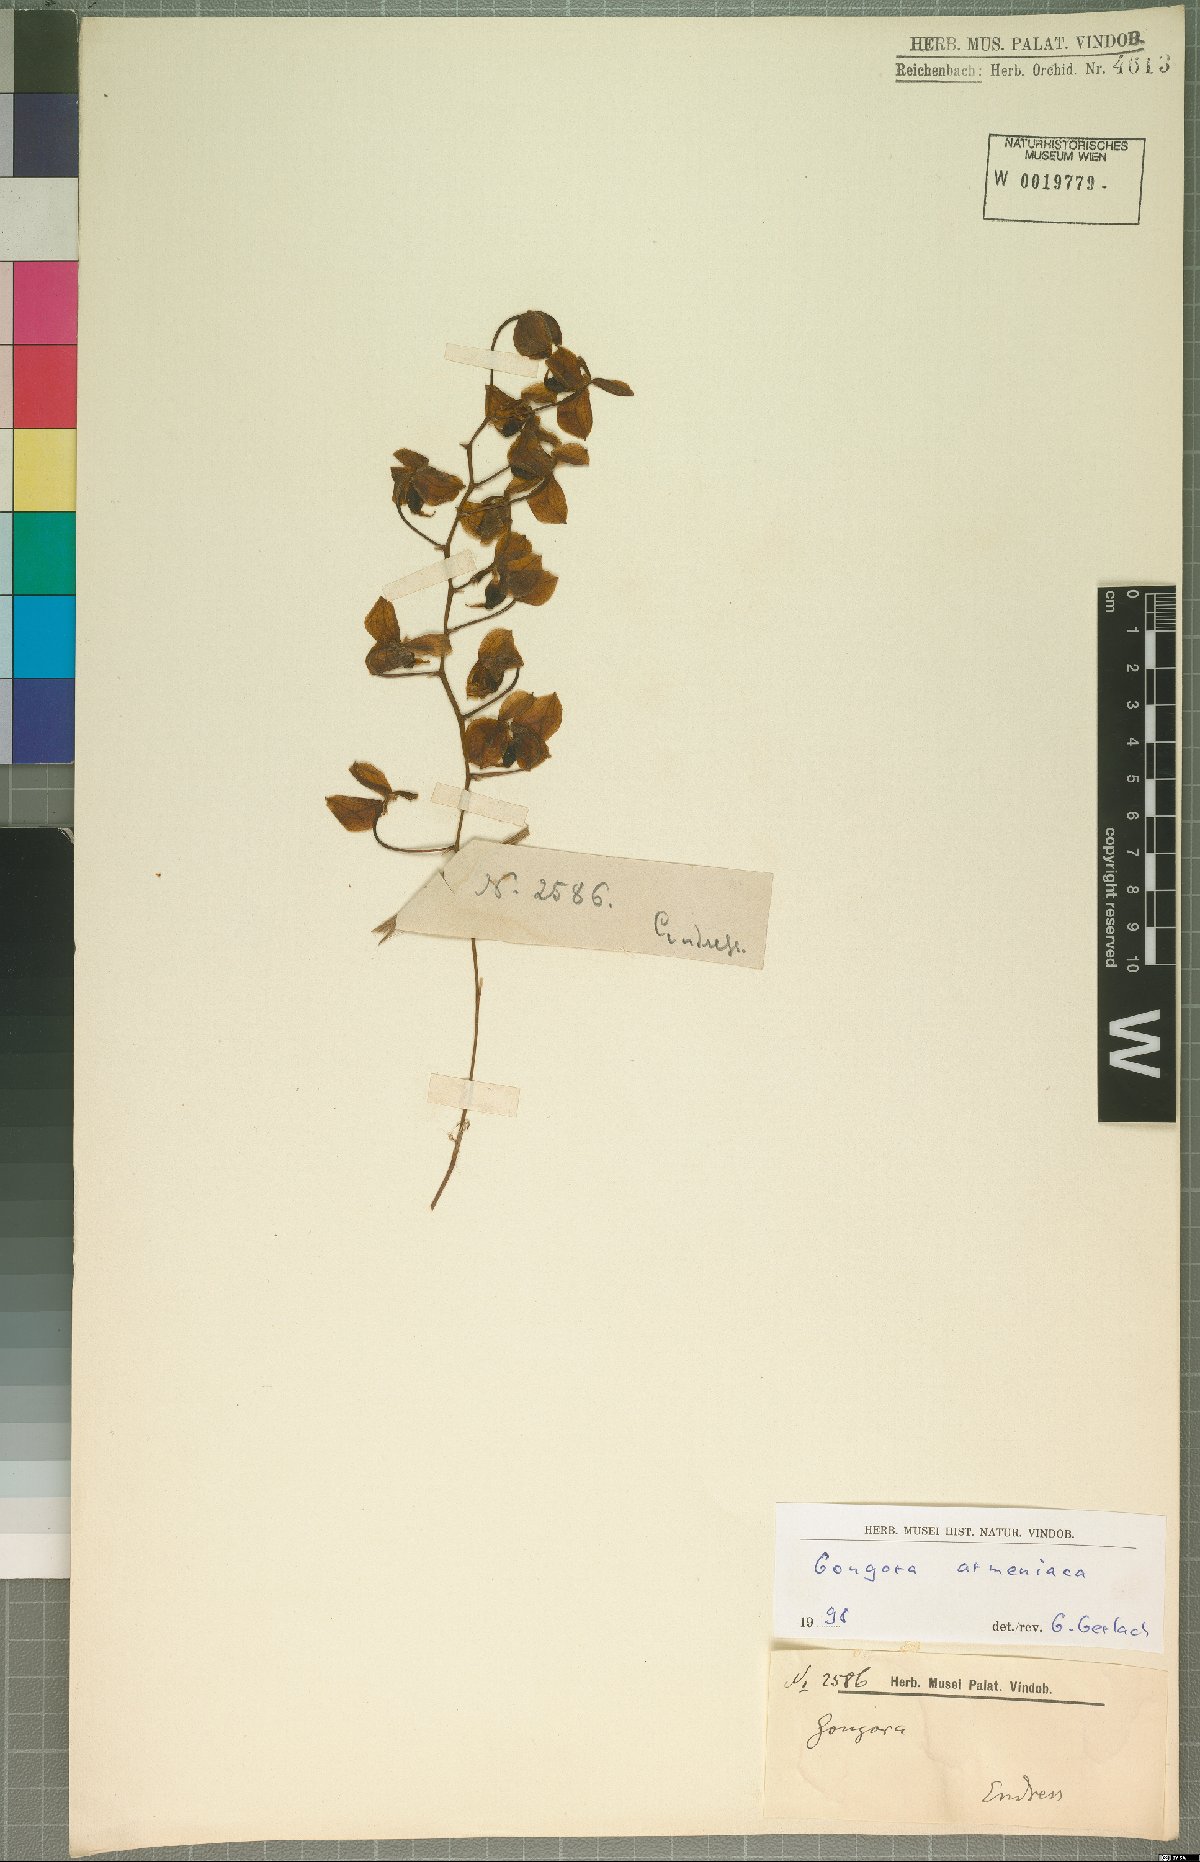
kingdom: Plantae
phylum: Tracheophyta
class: Liliopsida
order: Asparagales
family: Orchidaceae
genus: Gongora
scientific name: Gongora armeniaca
